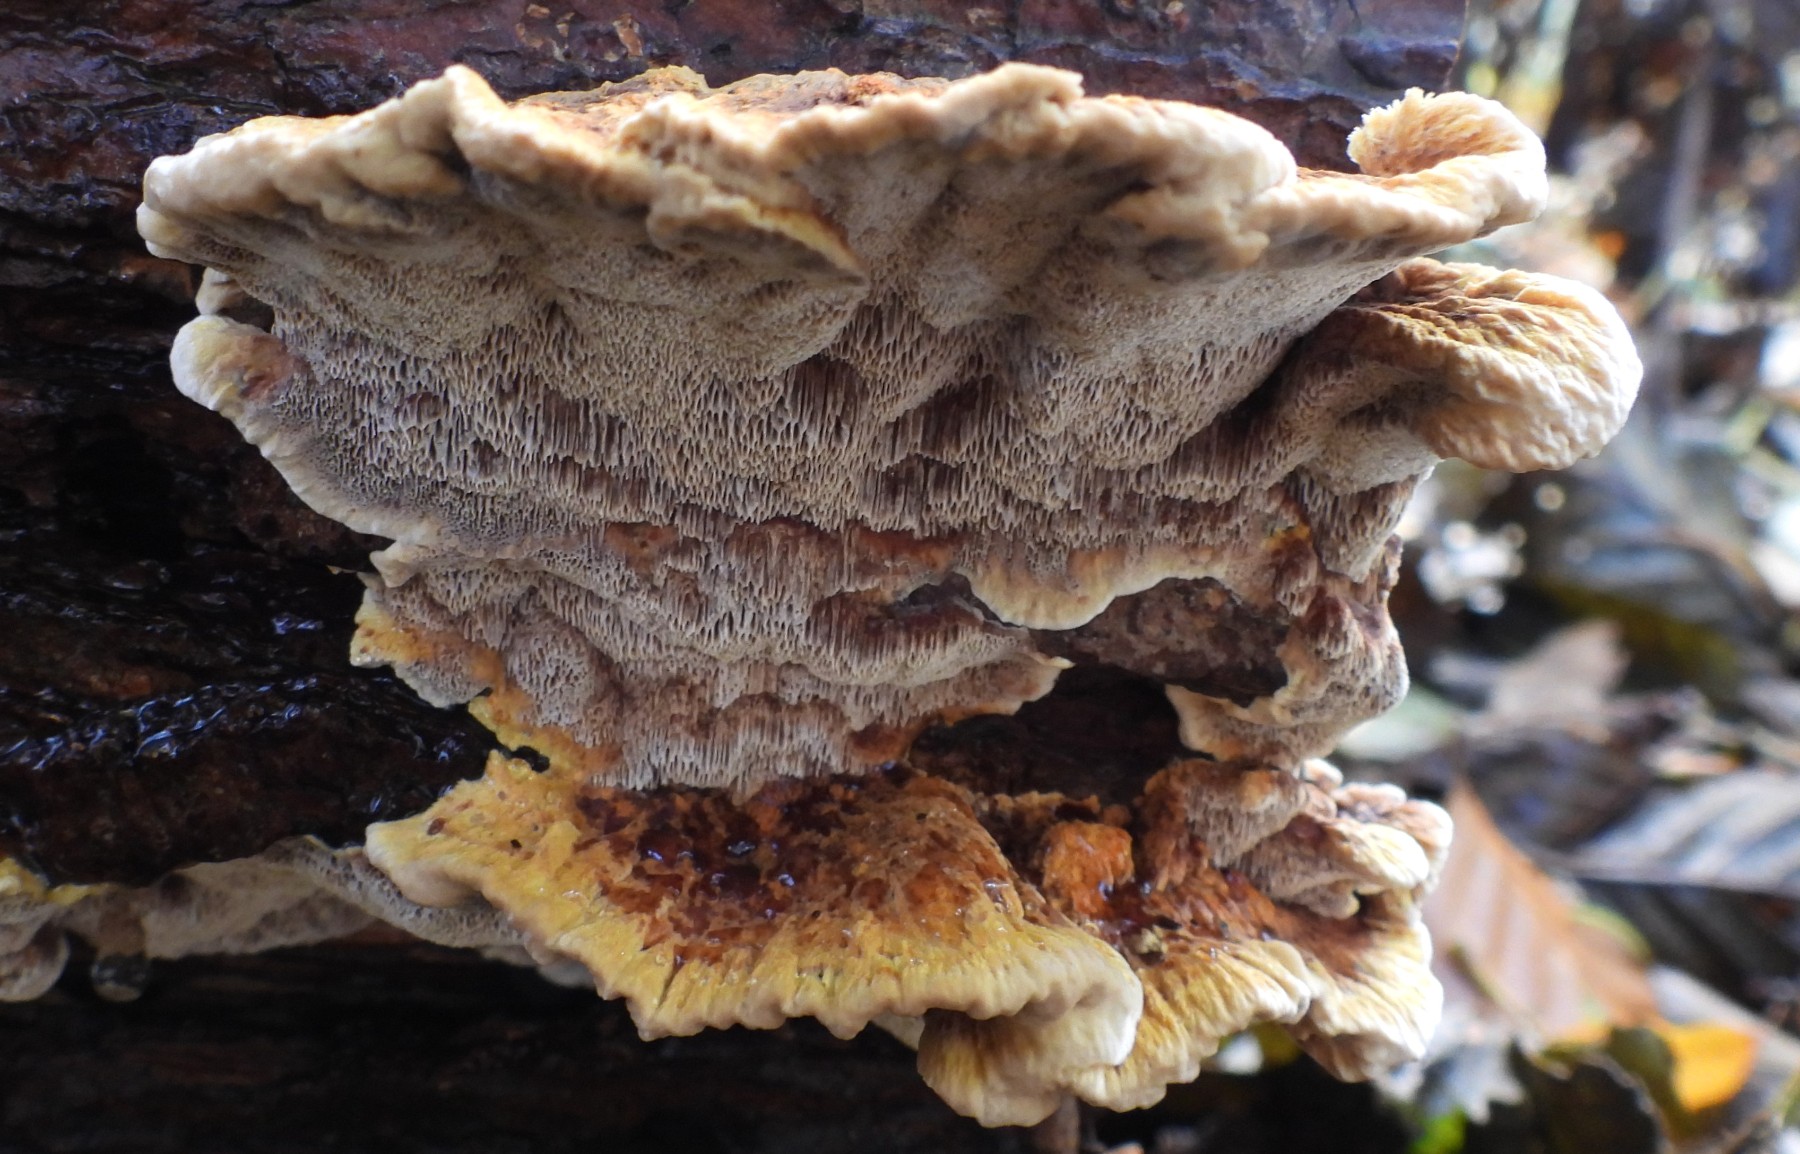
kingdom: Fungi
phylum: Basidiomycota
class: Agaricomycetes
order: Hymenochaetales
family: Hymenochaetaceae
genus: Xanthoporia
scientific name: Xanthoporia radiata
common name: elle-spejlporesvamp
